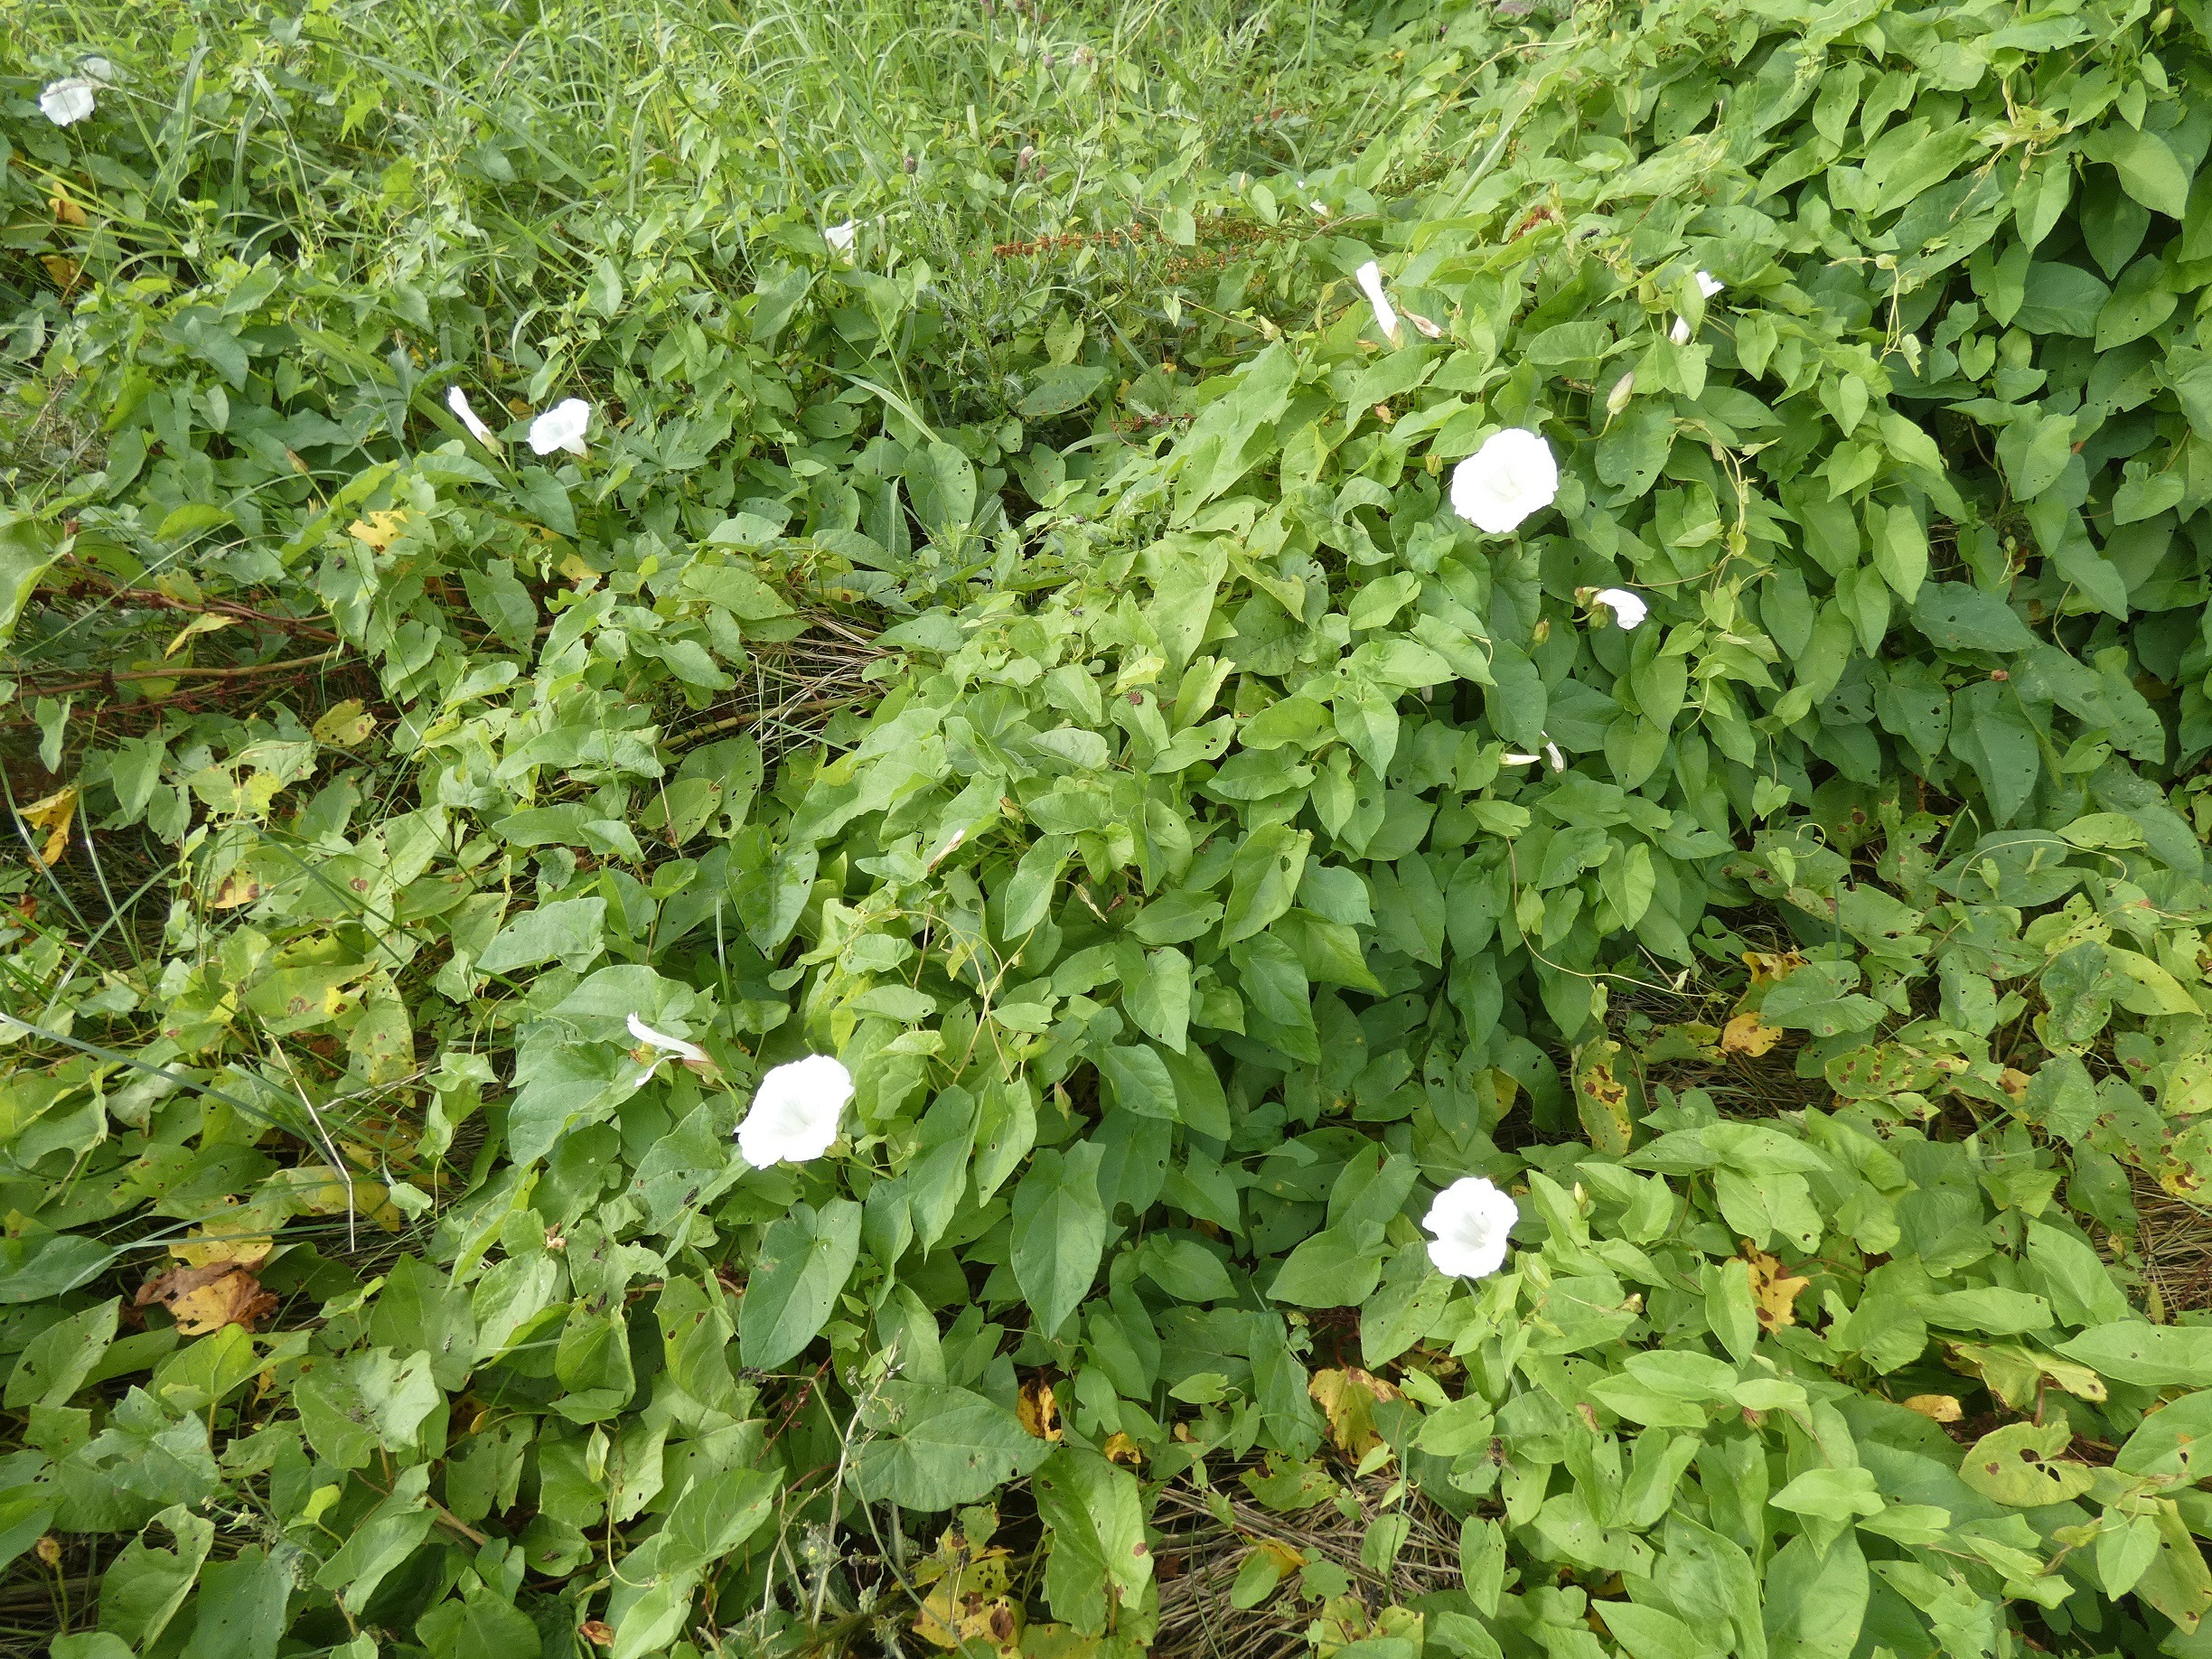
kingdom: Plantae
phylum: Tracheophyta
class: Magnoliopsida
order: Solanales
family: Convolvulaceae
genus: Calystegia
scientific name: Calystegia sepium
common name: Gærde-snerle
